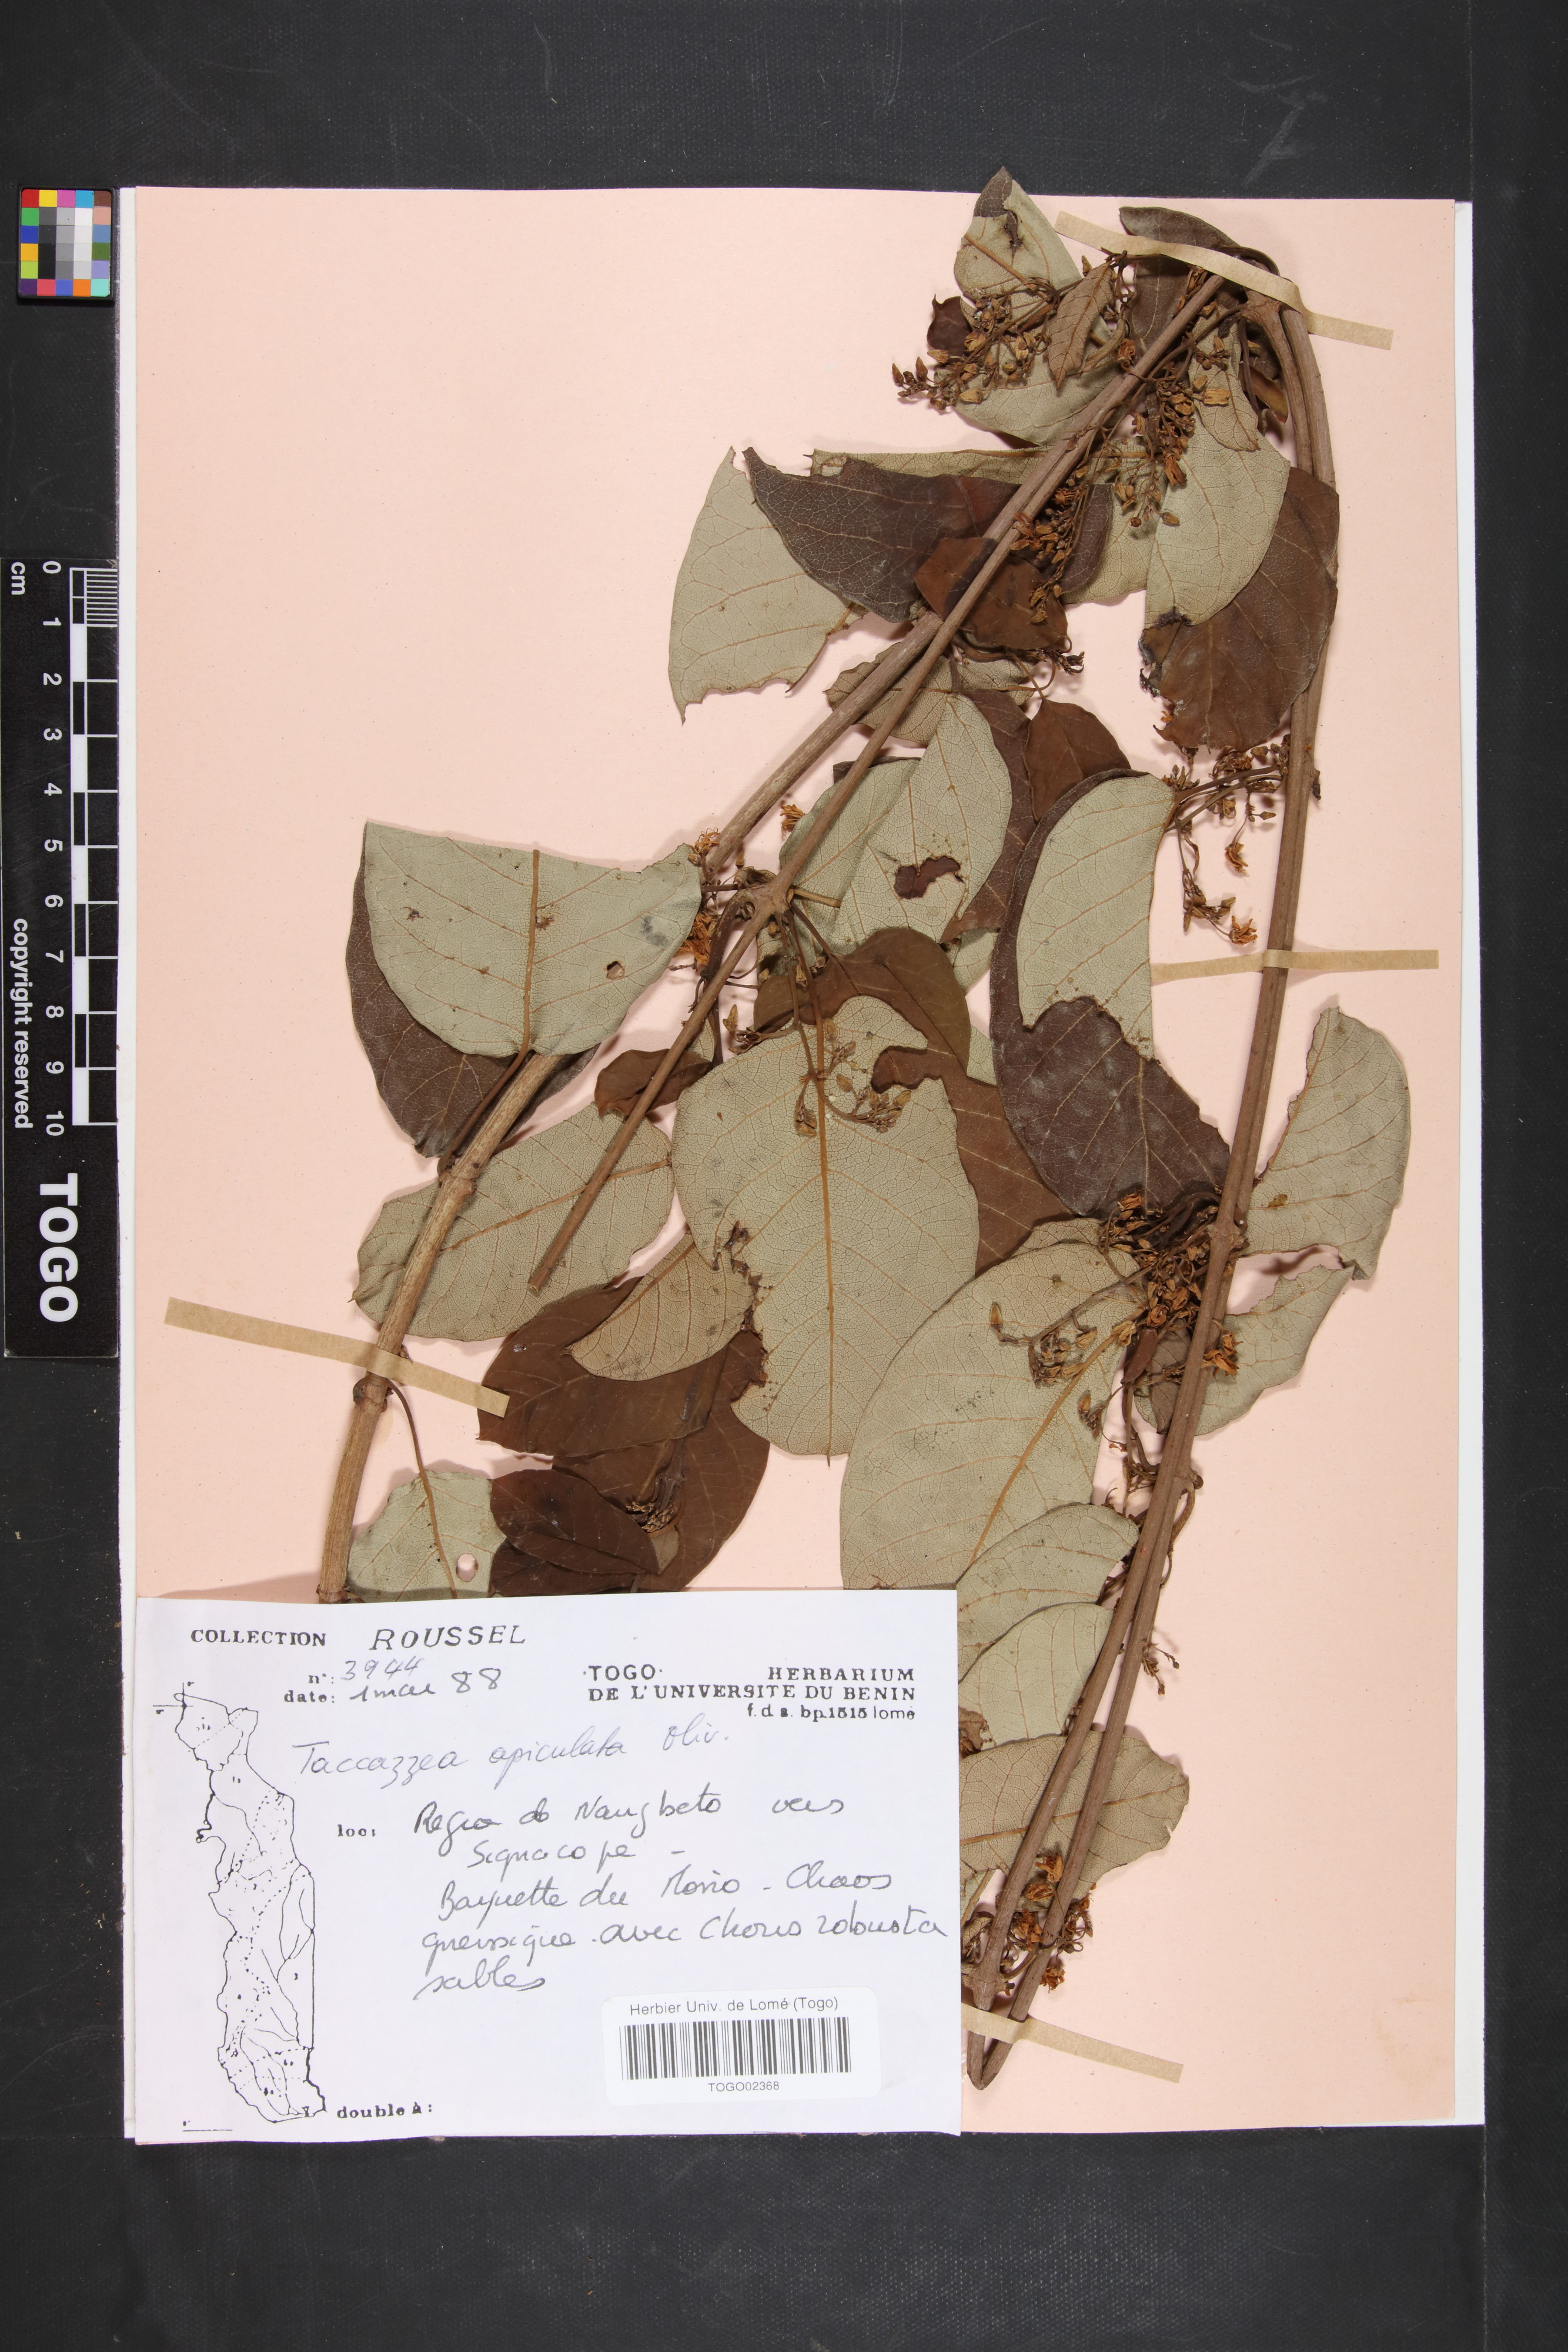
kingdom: Plantae
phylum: Tracheophyta
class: Magnoliopsida
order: Gentianales
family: Apocynaceae
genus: Tacazzea
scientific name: Tacazzea apiculata
